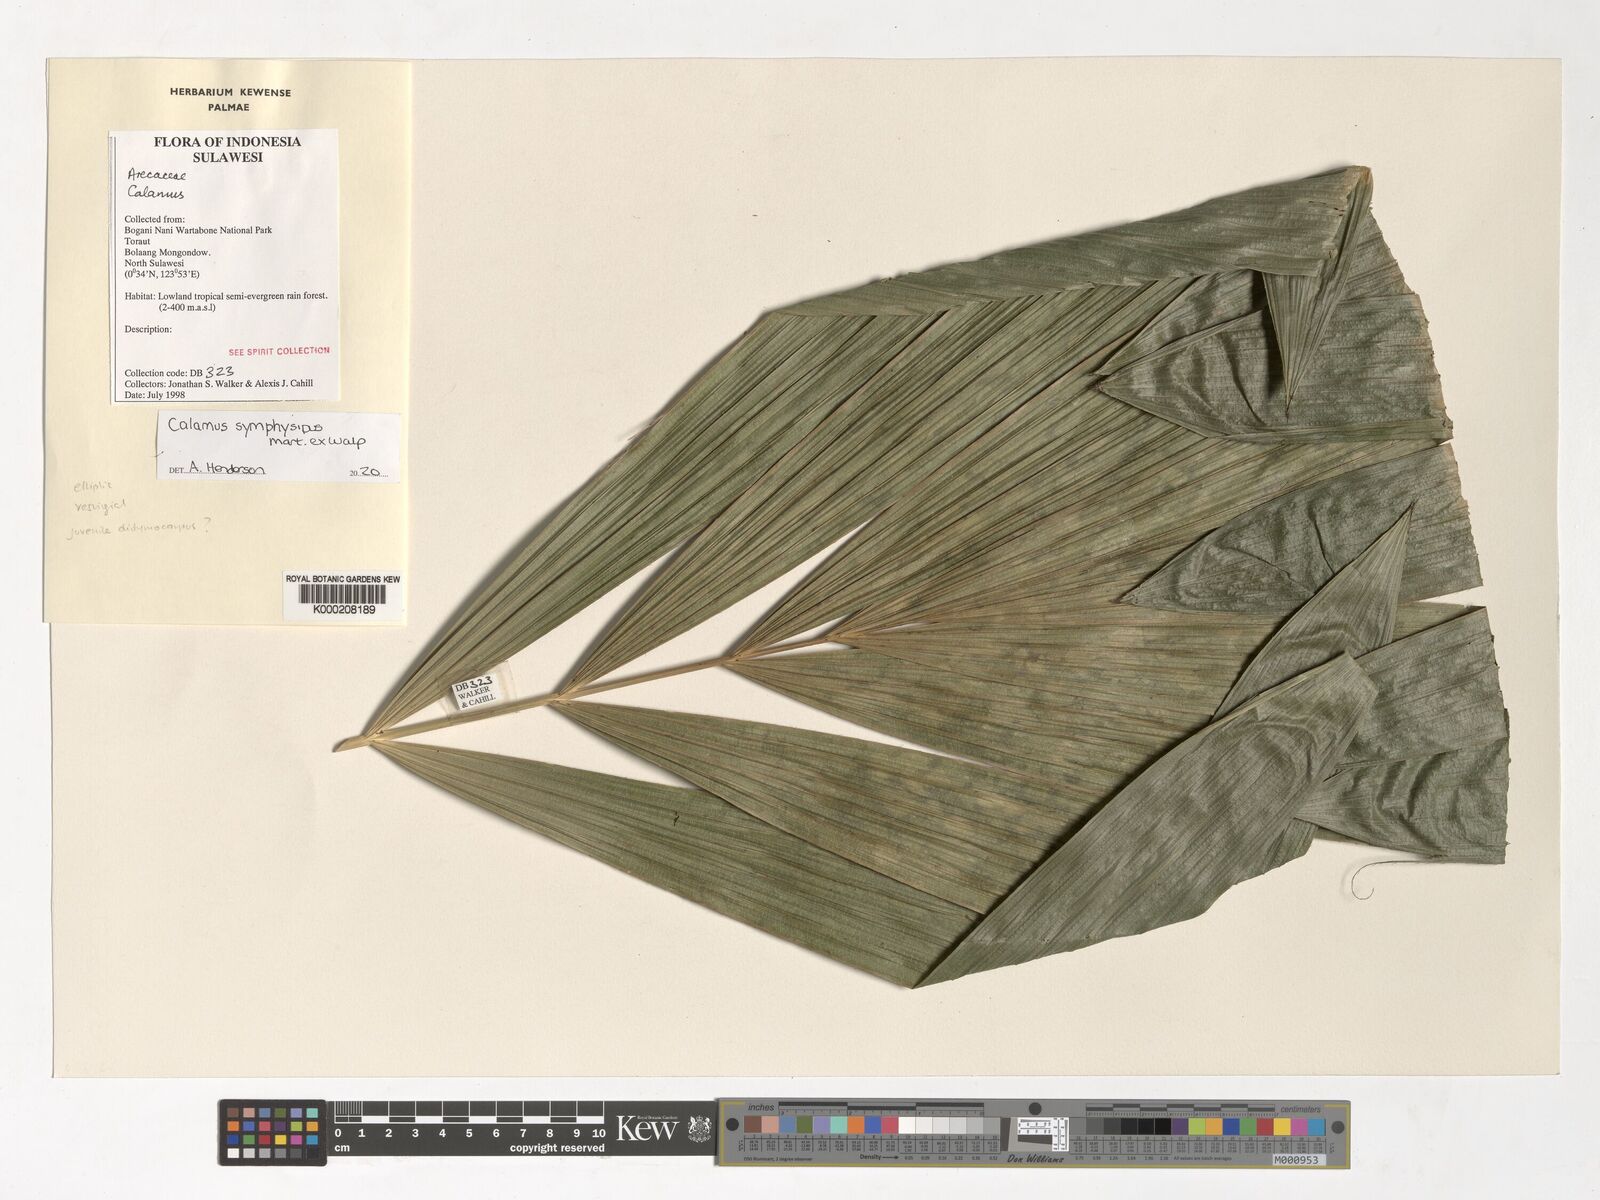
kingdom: Plantae
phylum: Tracheophyta
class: Liliopsida
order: Arecales
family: Arecaceae
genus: Calamus
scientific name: Calamus symphysipus
